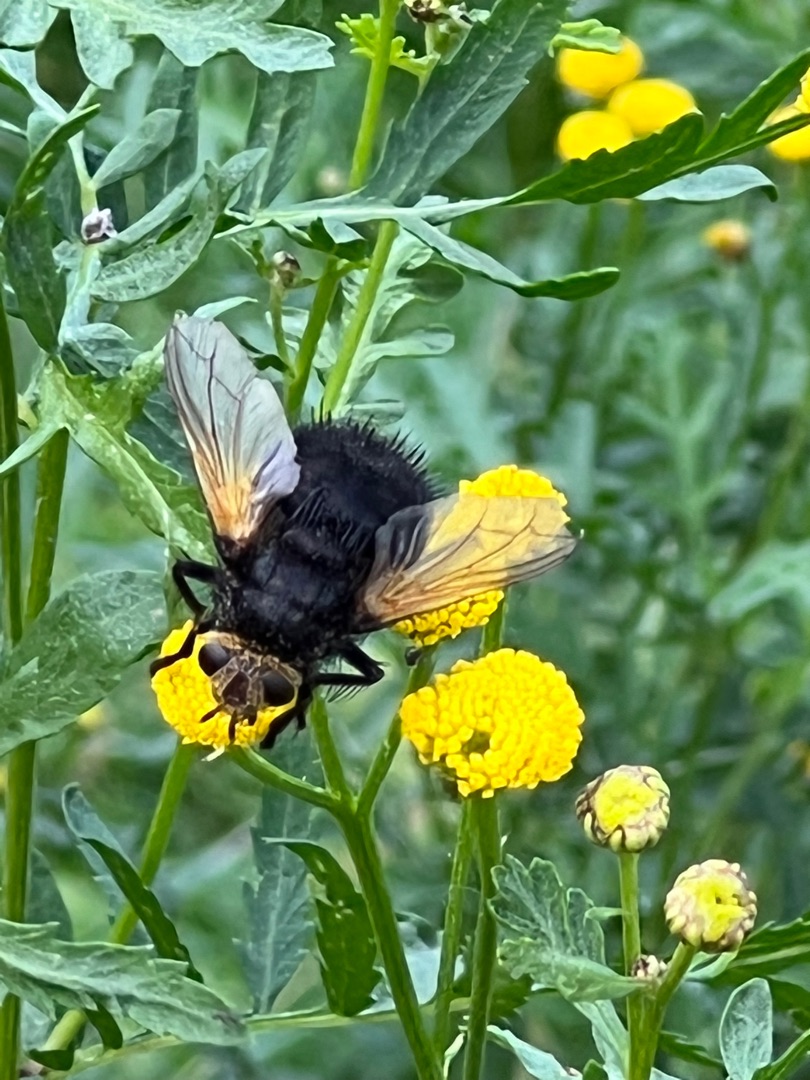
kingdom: Animalia
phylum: Arthropoda
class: Insecta
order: Diptera
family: Tachinidae
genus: Tachina
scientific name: Tachina grossa
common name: Kæmpefluen Harald
